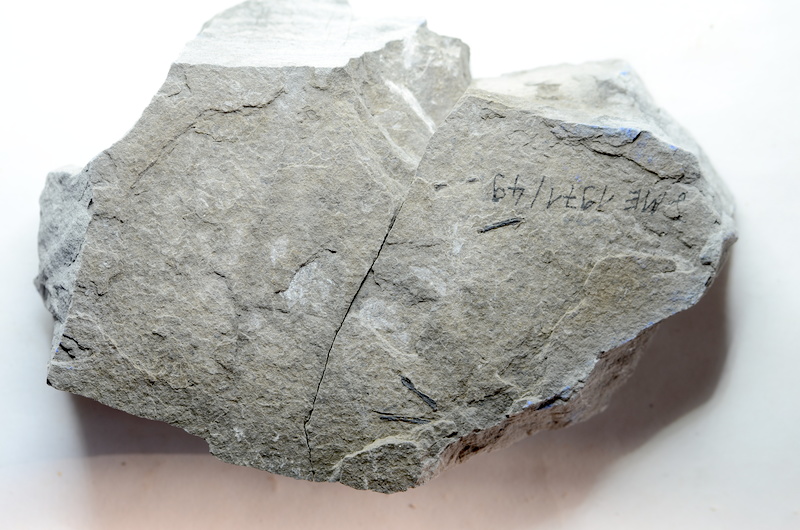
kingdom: Animalia
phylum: Chordata
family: Pholidophoridae
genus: Pholidophorus
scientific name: Pholidophorus pusillus
